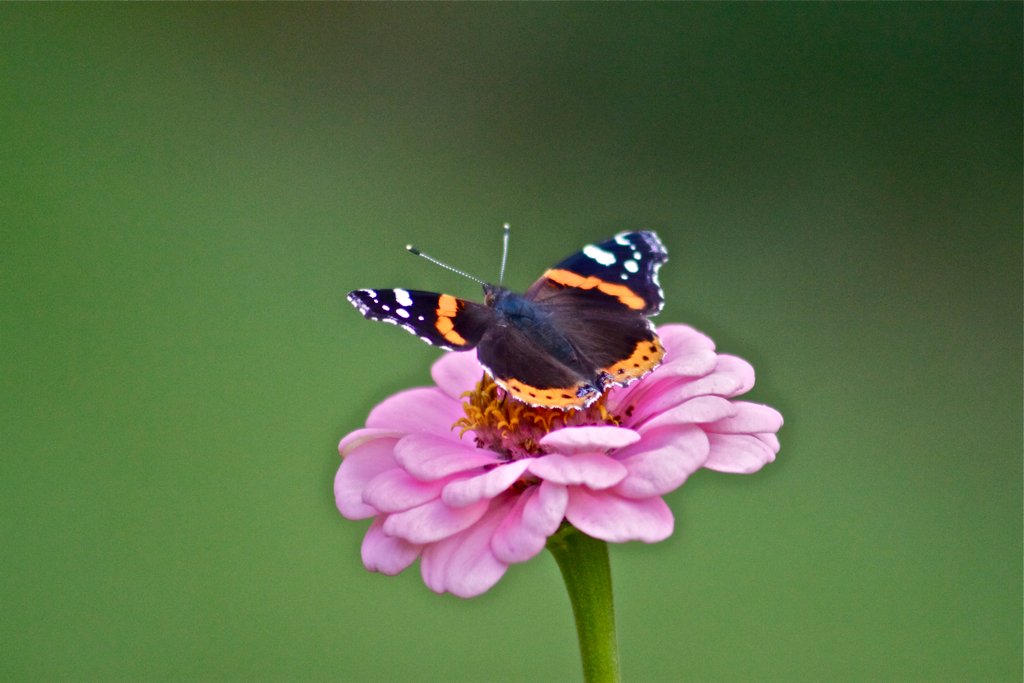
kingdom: Animalia
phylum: Arthropoda
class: Insecta
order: Lepidoptera
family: Nymphalidae
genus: Vanessa
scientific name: Vanessa atalanta
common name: Red Admiral
